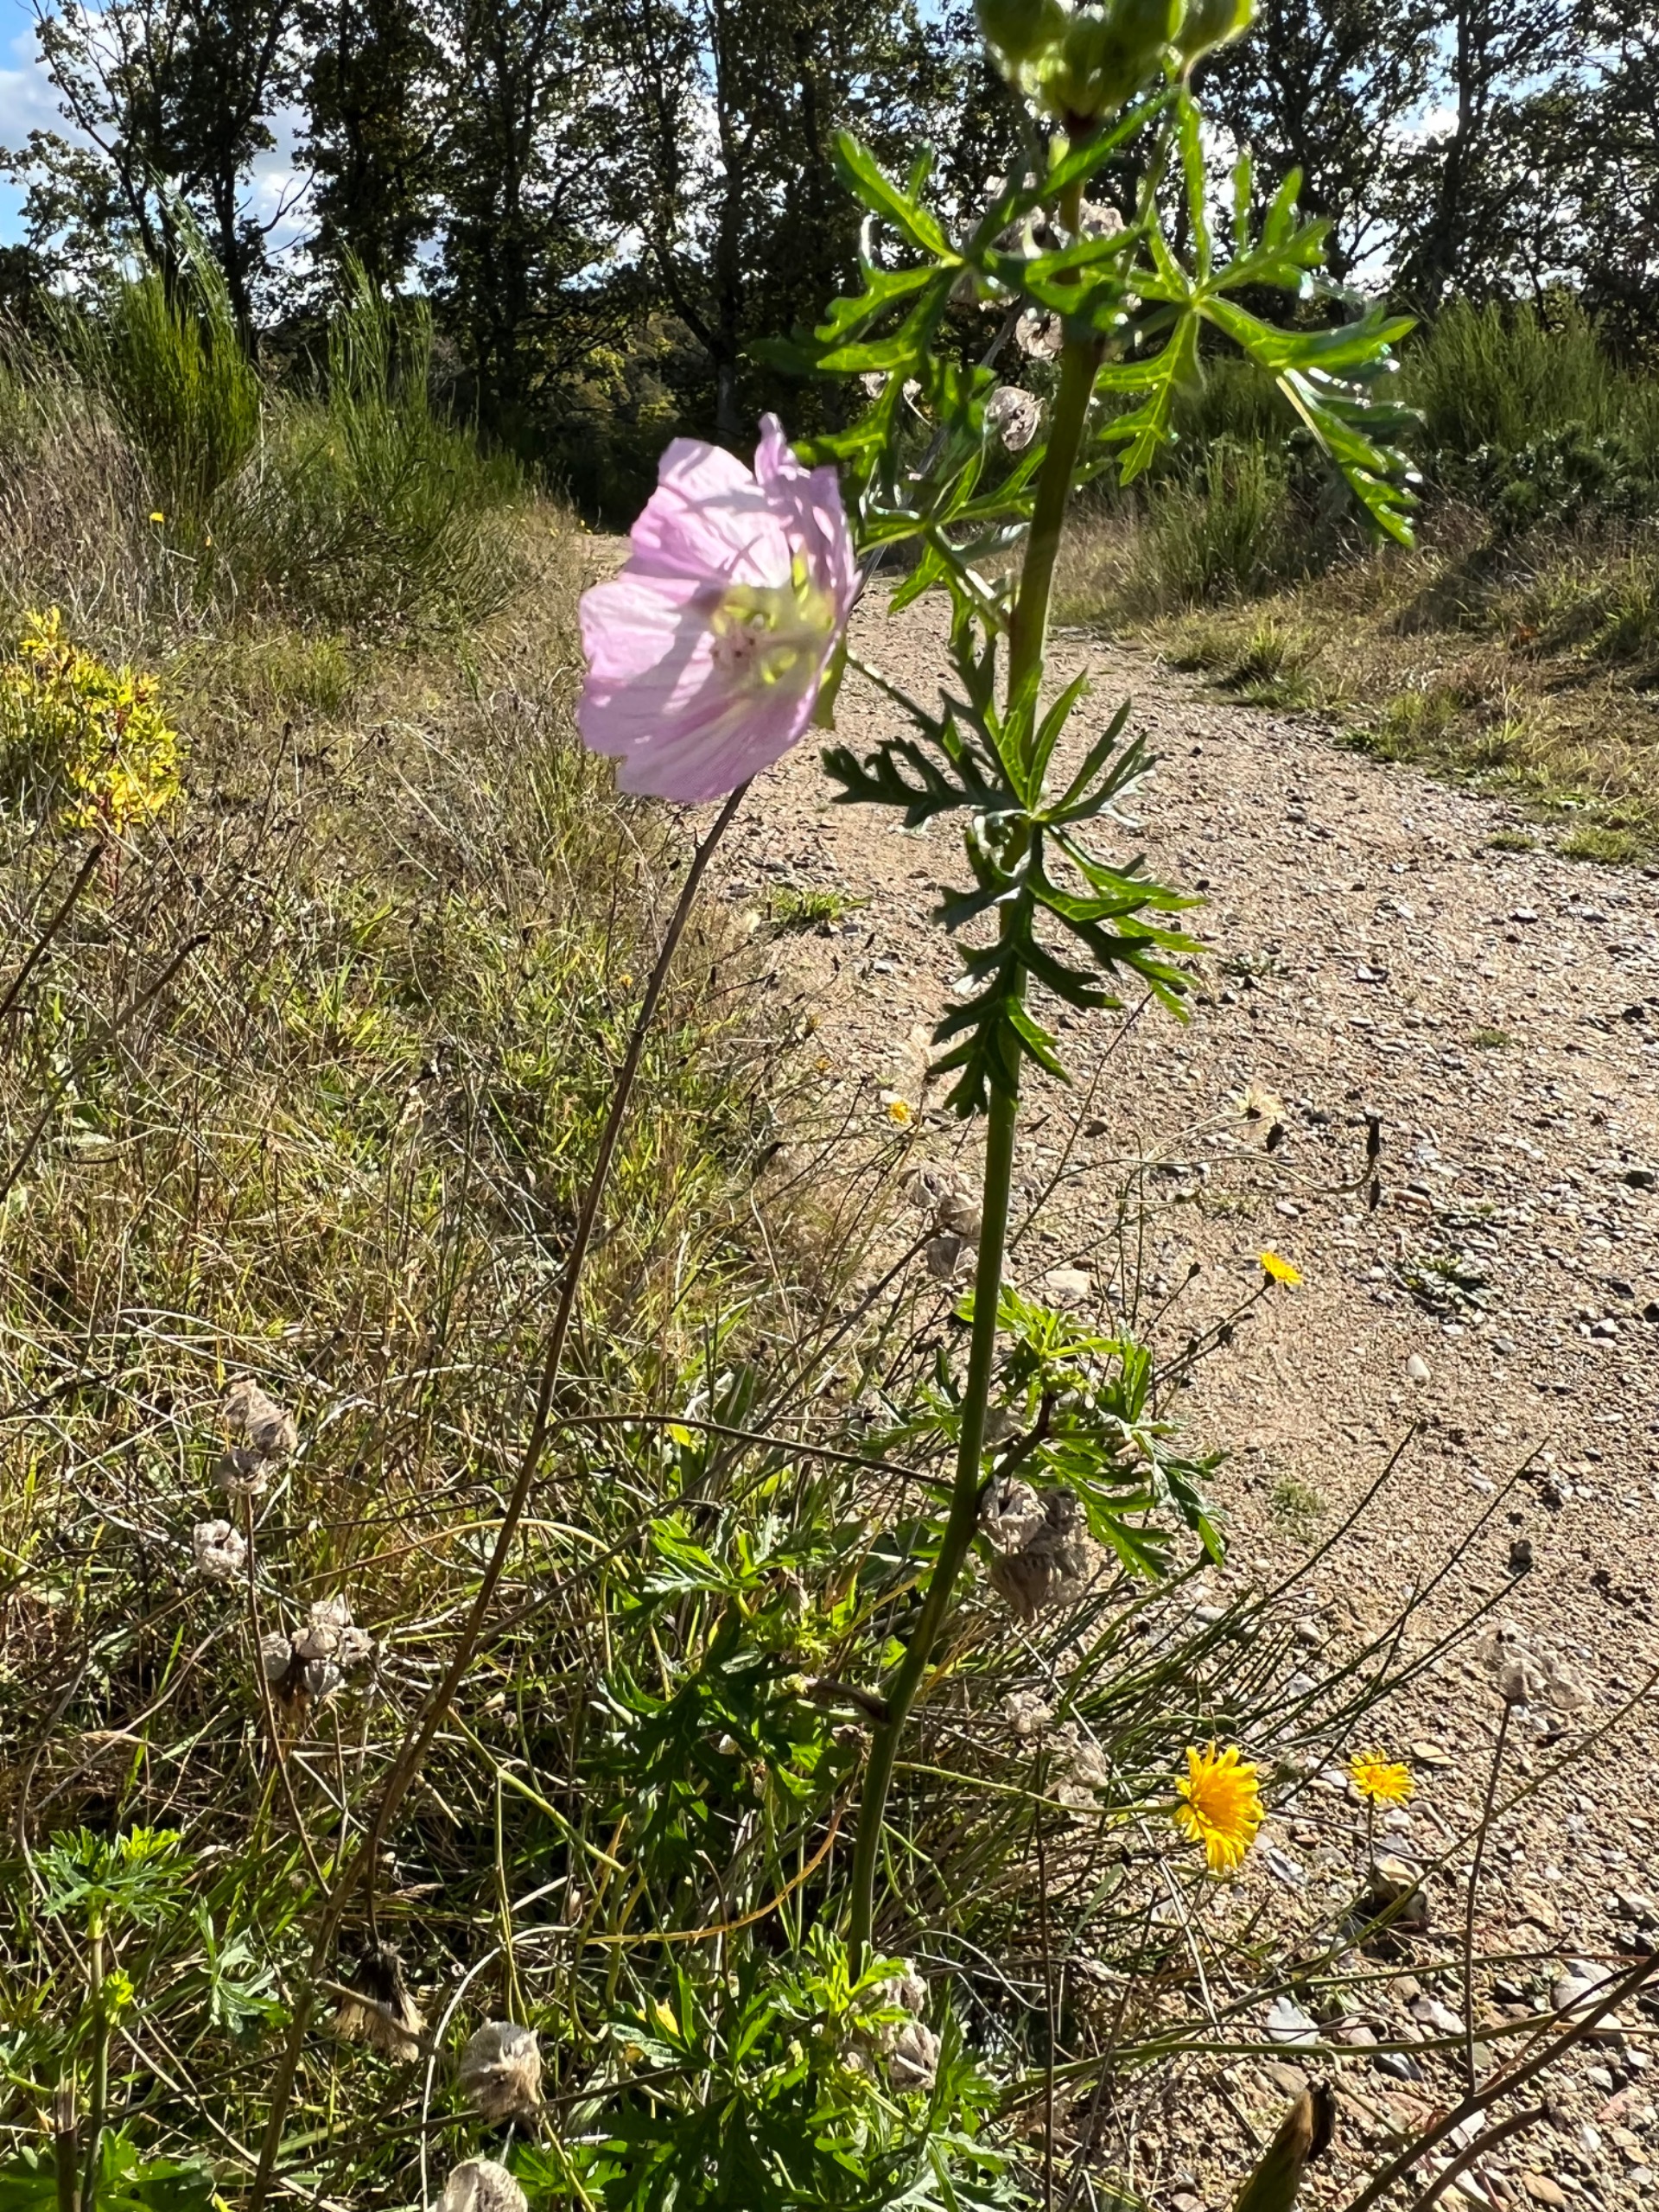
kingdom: Plantae
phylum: Tracheophyta
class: Magnoliopsida
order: Malvales
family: Malvaceae
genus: Malva
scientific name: Malva
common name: Katostslægten
